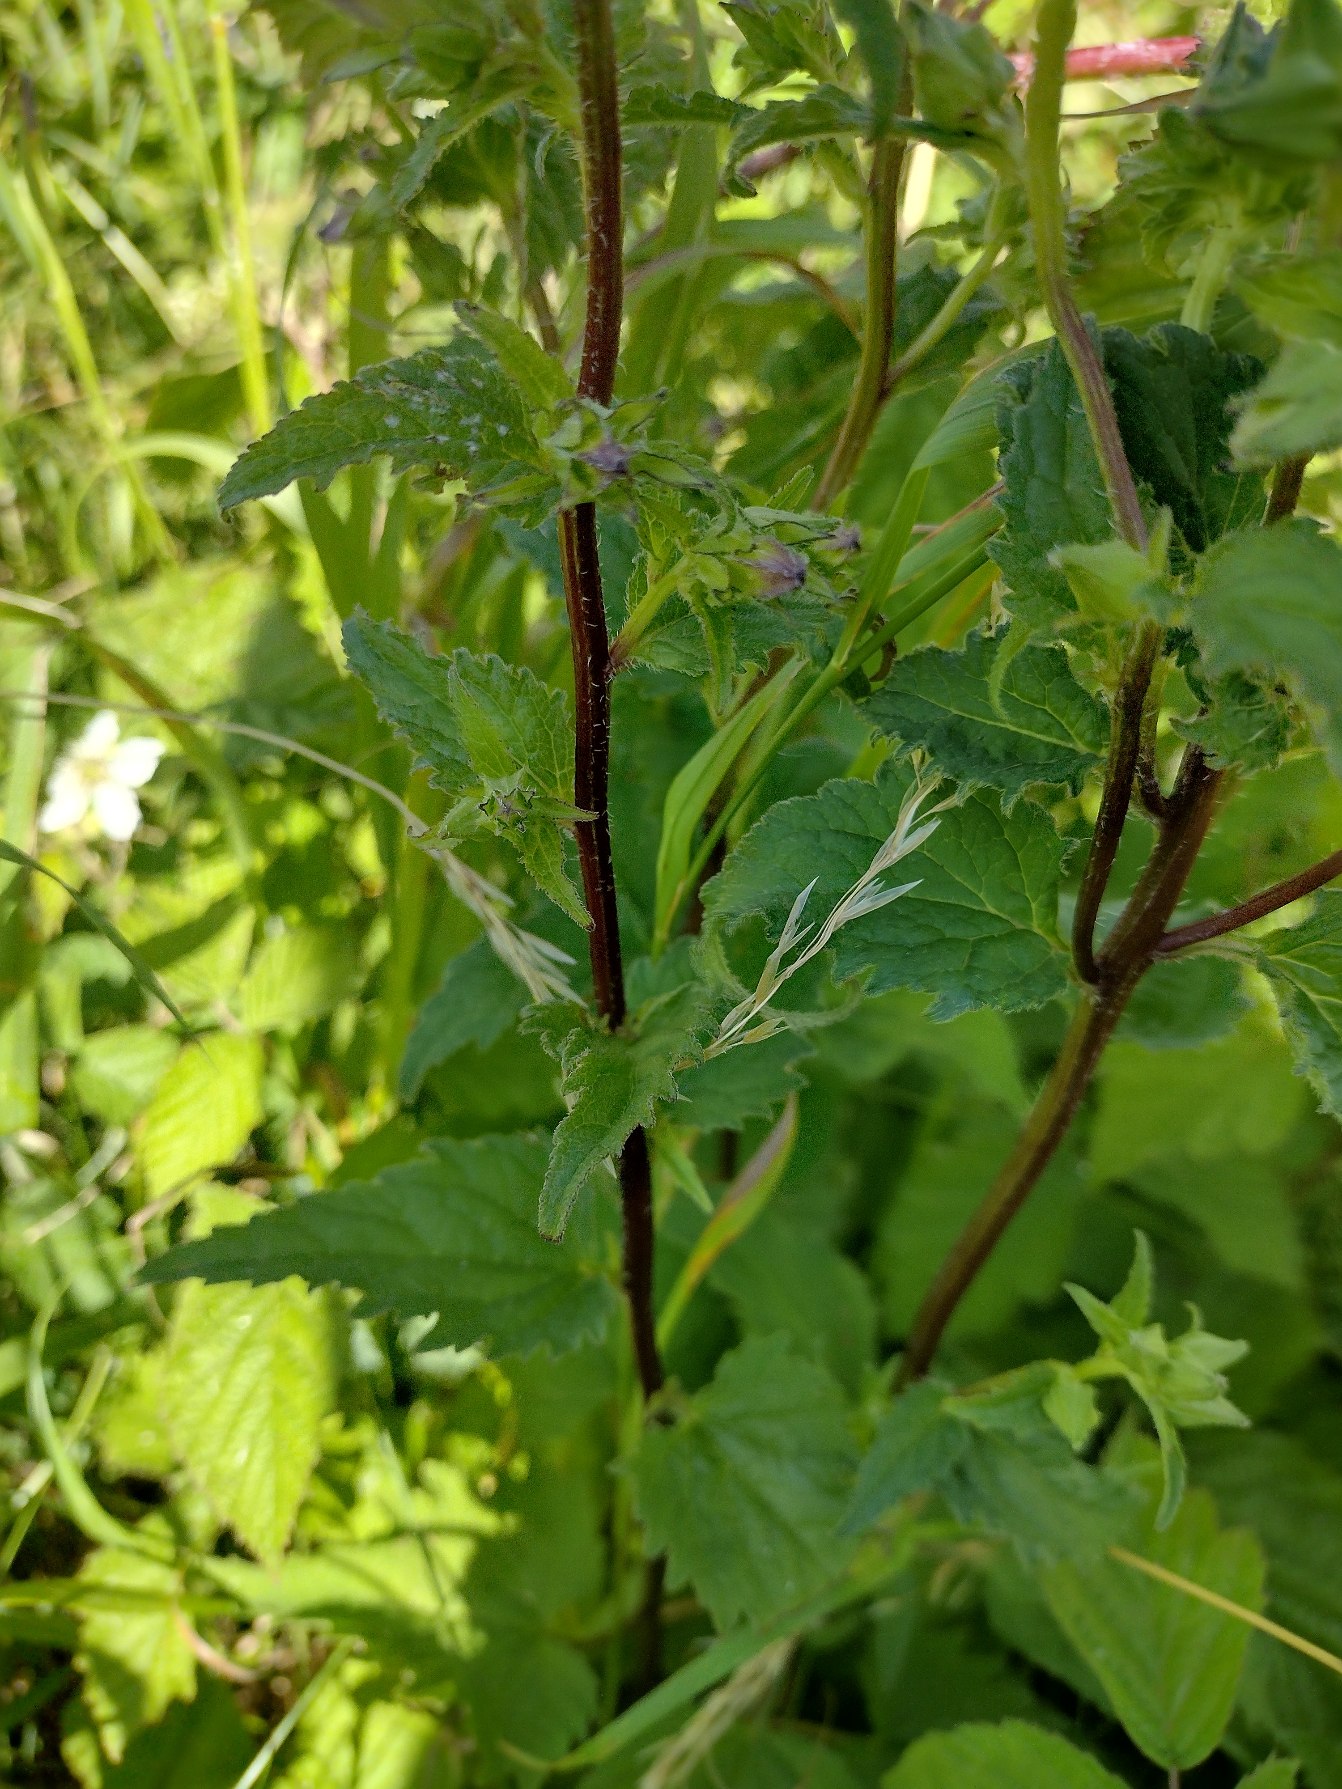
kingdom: Plantae
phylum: Tracheophyta
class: Magnoliopsida
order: Asterales
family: Campanulaceae
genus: Campanula
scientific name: Campanula trachelium
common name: Nælde-klokke
